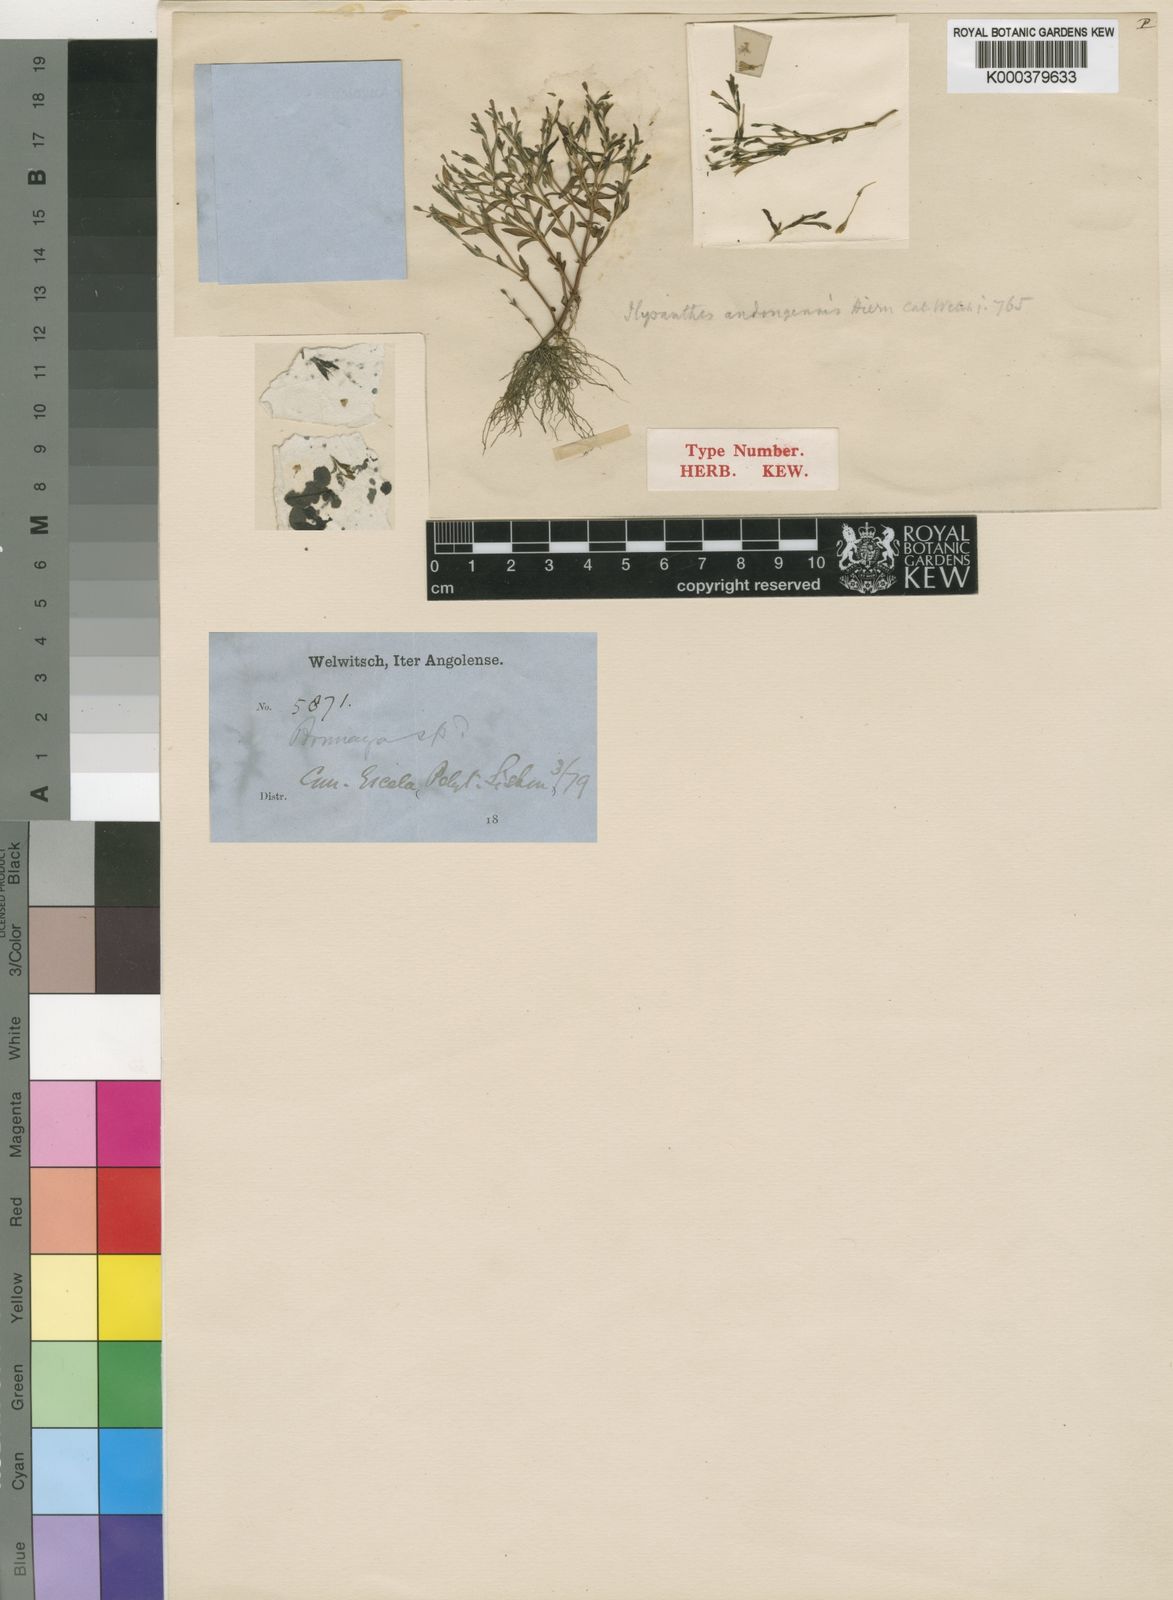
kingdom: Plantae
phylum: Tracheophyta
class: Magnoliopsida
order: Lamiales
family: Linderniaceae
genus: Linderniella
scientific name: Linderniella andongensis
